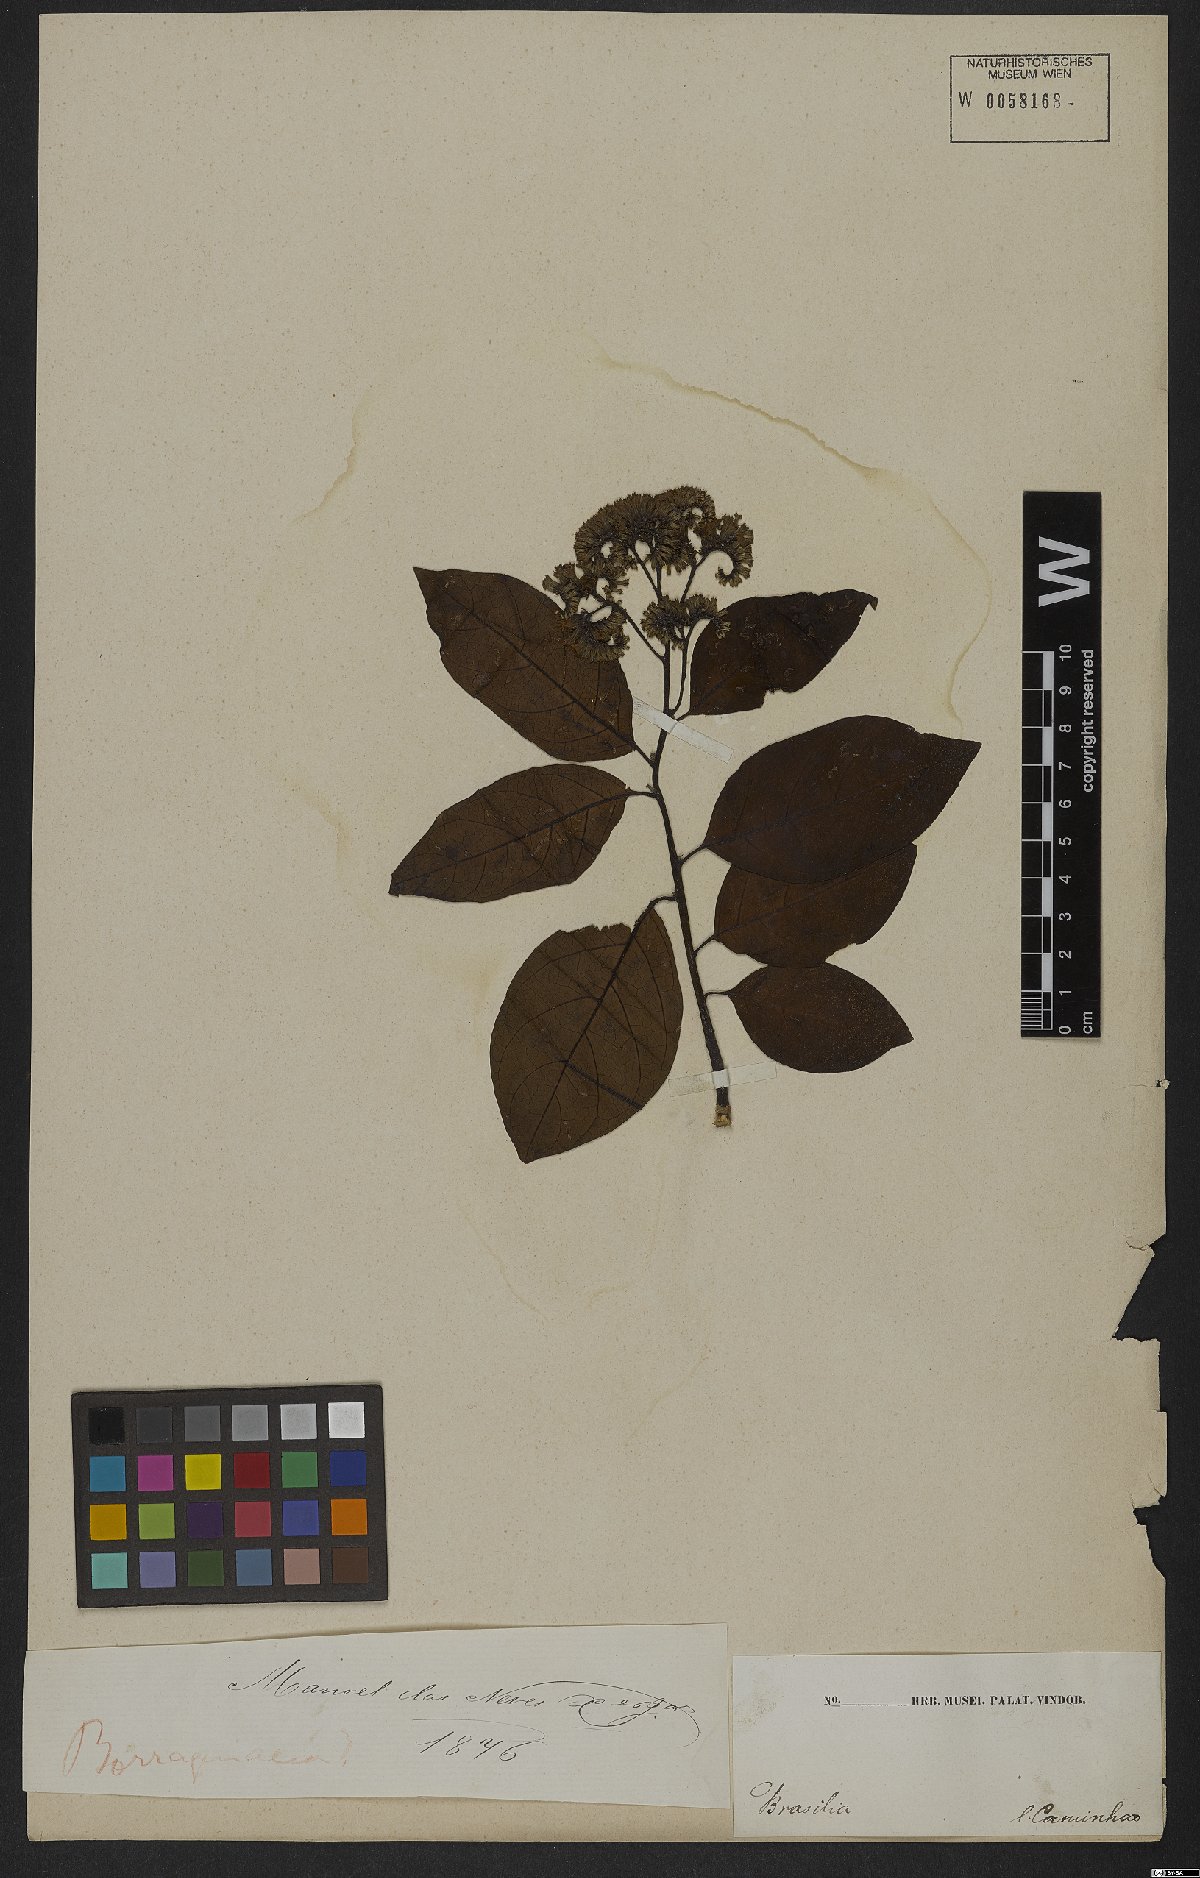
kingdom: Plantae
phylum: Tracheophyta
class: Magnoliopsida
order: Boraginales
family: Heliotropiaceae
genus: Heliotropium
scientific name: Heliotropium verdcourtii
